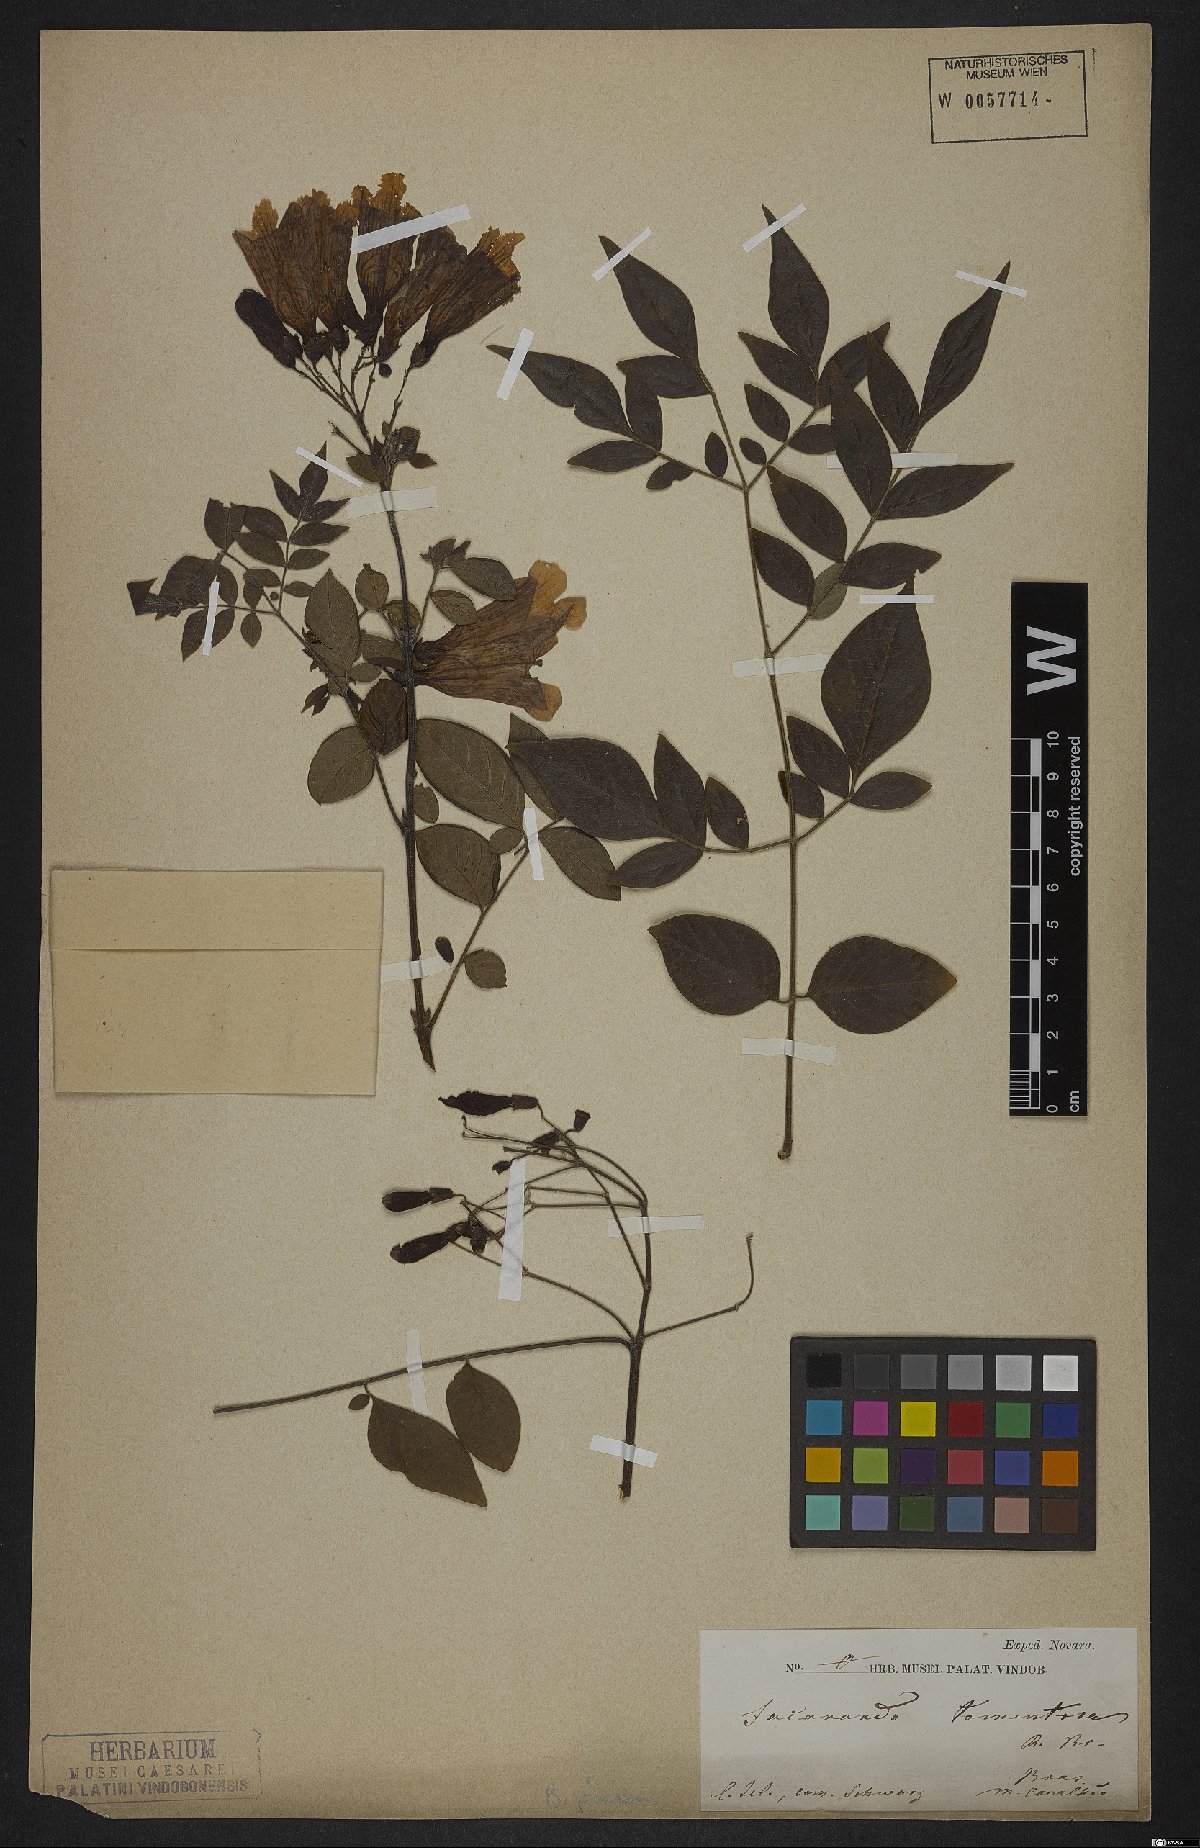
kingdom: Plantae
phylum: Tracheophyta
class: Magnoliopsida
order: Lamiales
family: Bignoniaceae
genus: Jacaranda
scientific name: Jacaranda jasminoides
